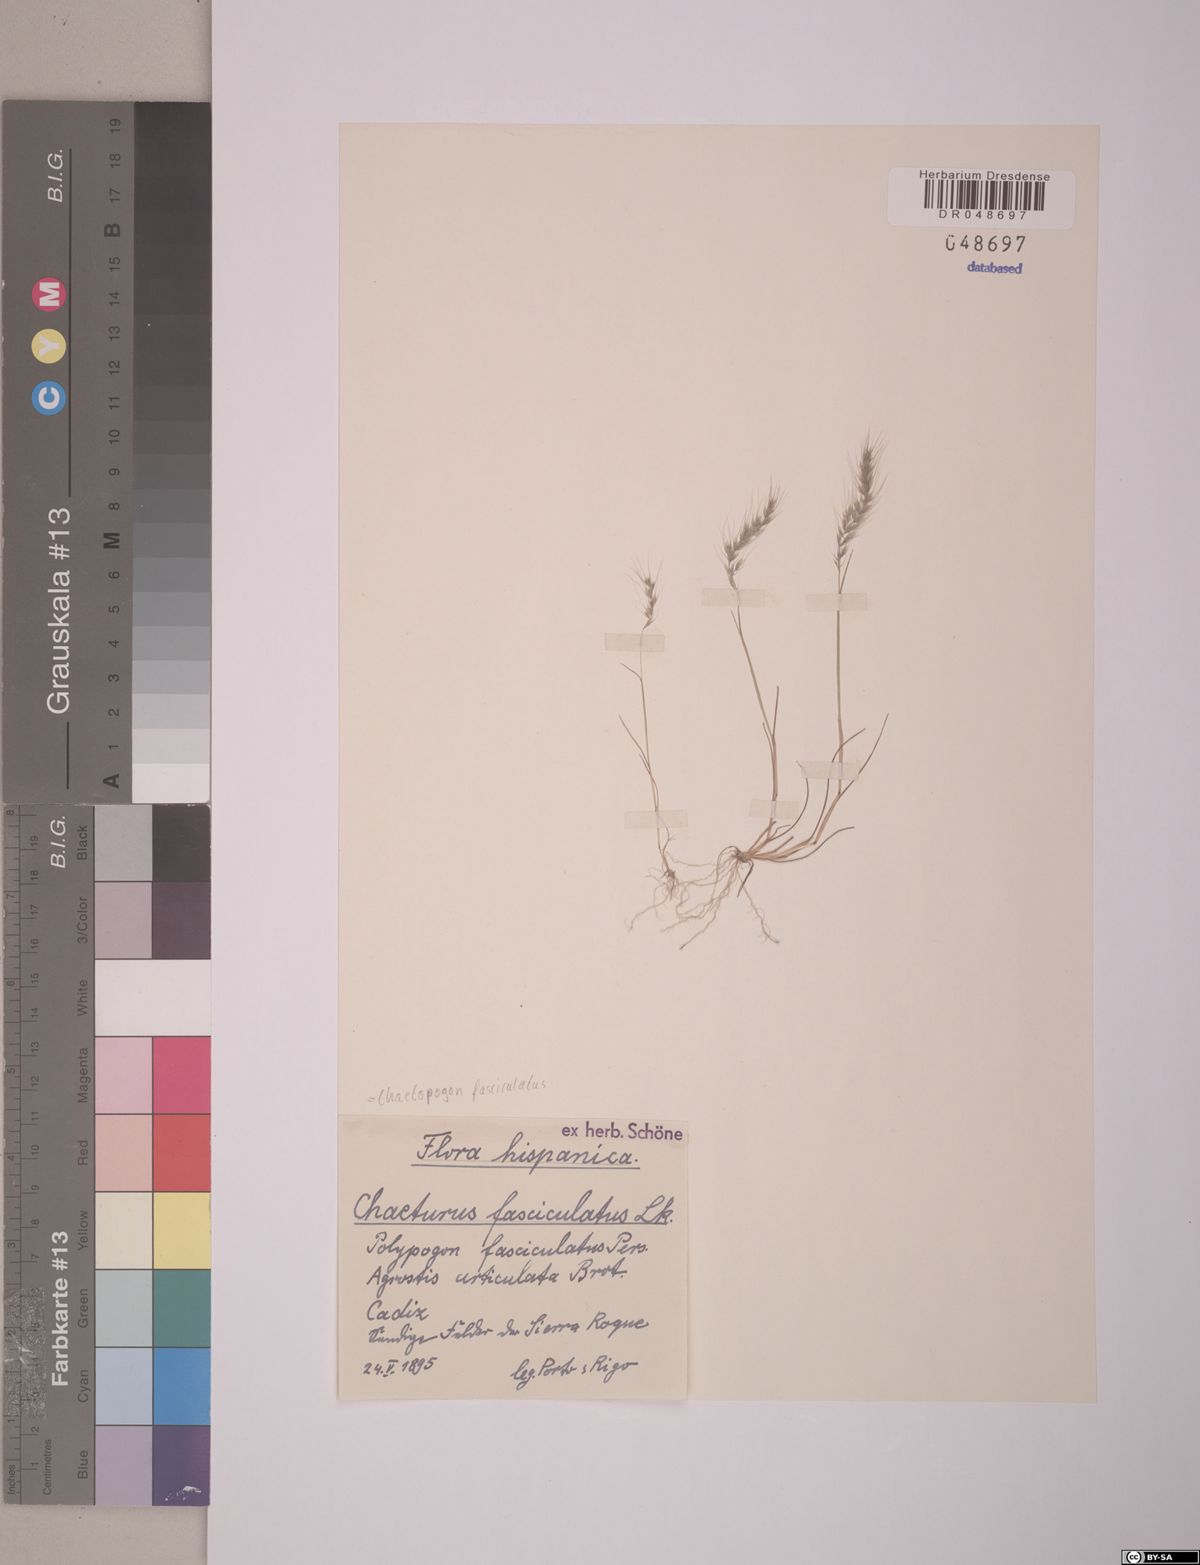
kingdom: Plantae
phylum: Tracheophyta
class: Liliopsida
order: Poales
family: Poaceae
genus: Agrostis
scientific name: Agrostis subspicata
